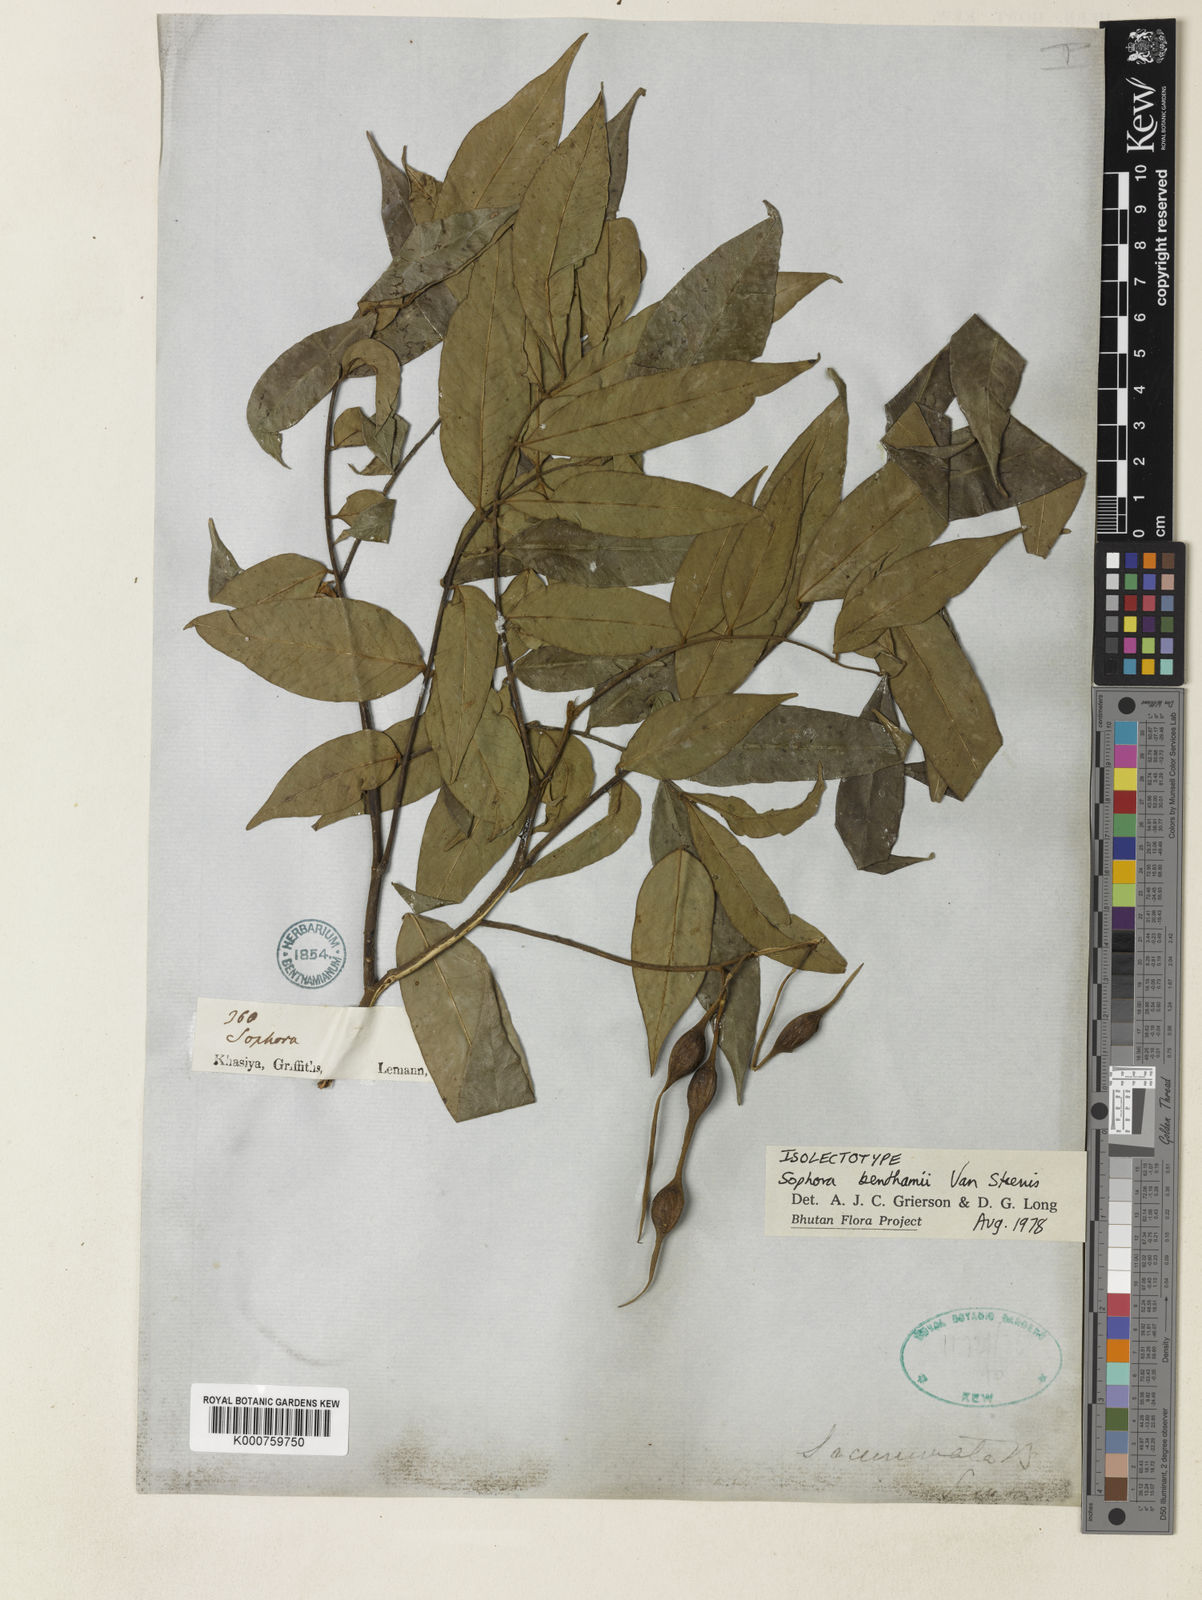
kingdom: Plantae
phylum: Tracheophyta
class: Magnoliopsida
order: Fabales
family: Fabaceae
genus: Sophora
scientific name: Sophora benthamii
